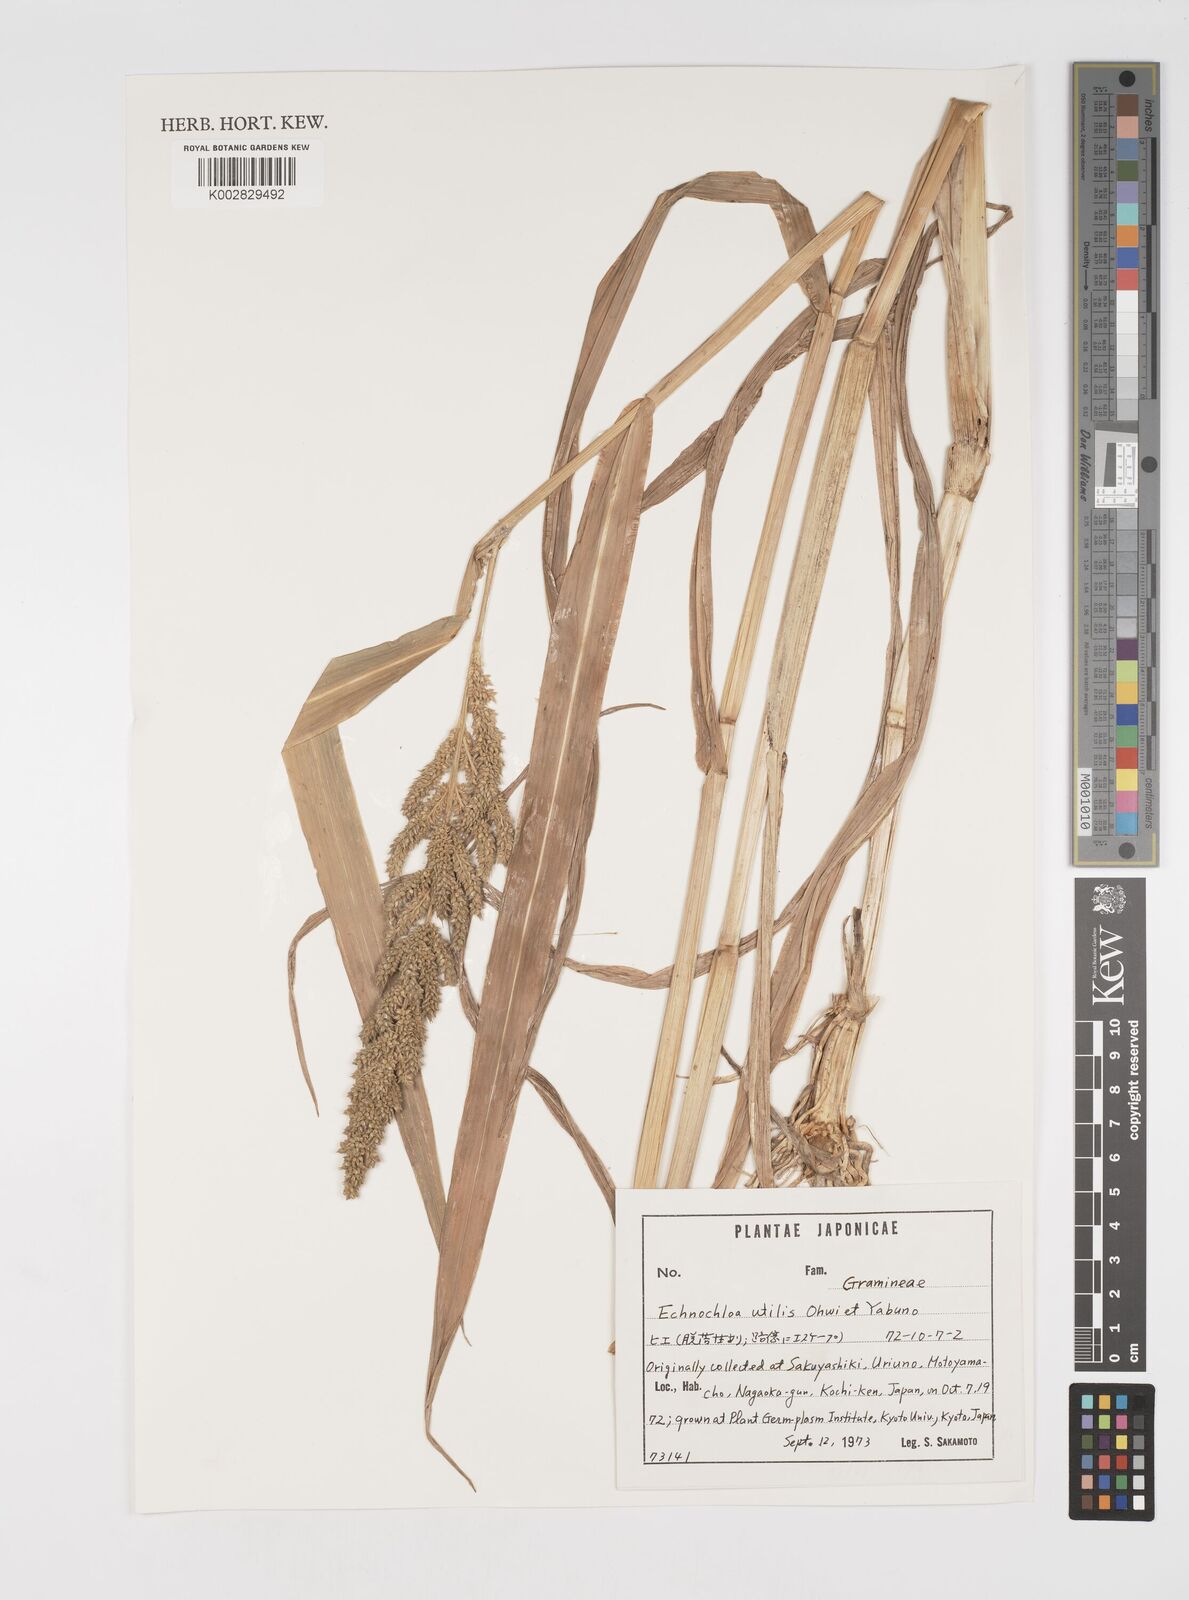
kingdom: Plantae
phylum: Tracheophyta
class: Liliopsida
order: Poales
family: Poaceae
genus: Echinochloa
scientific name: Echinochloa crus-galli
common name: Cockspur
